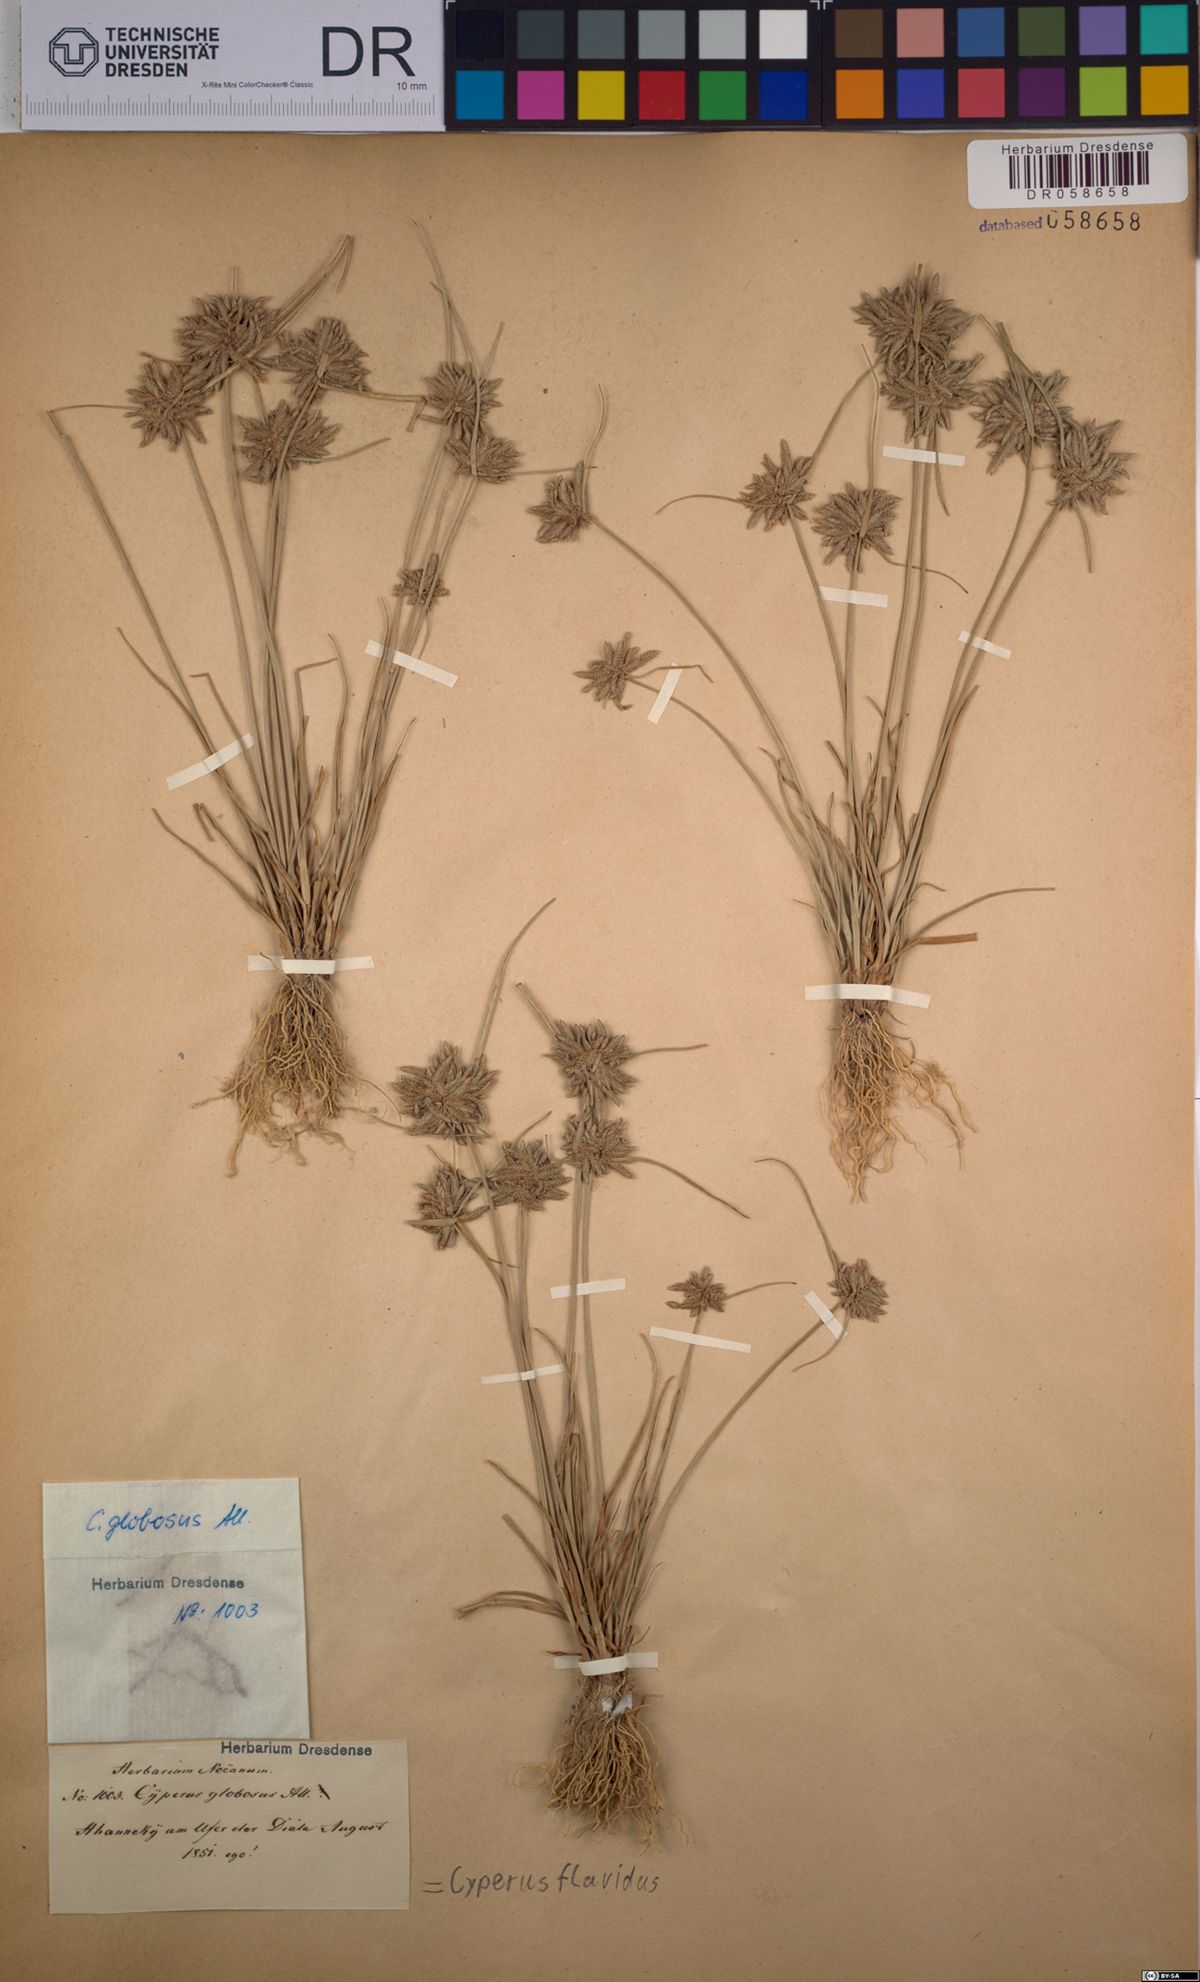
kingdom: Plantae
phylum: Tracheophyta
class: Liliopsida
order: Poales
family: Cyperaceae
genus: Cyperus
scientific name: Cyperus flavidus
